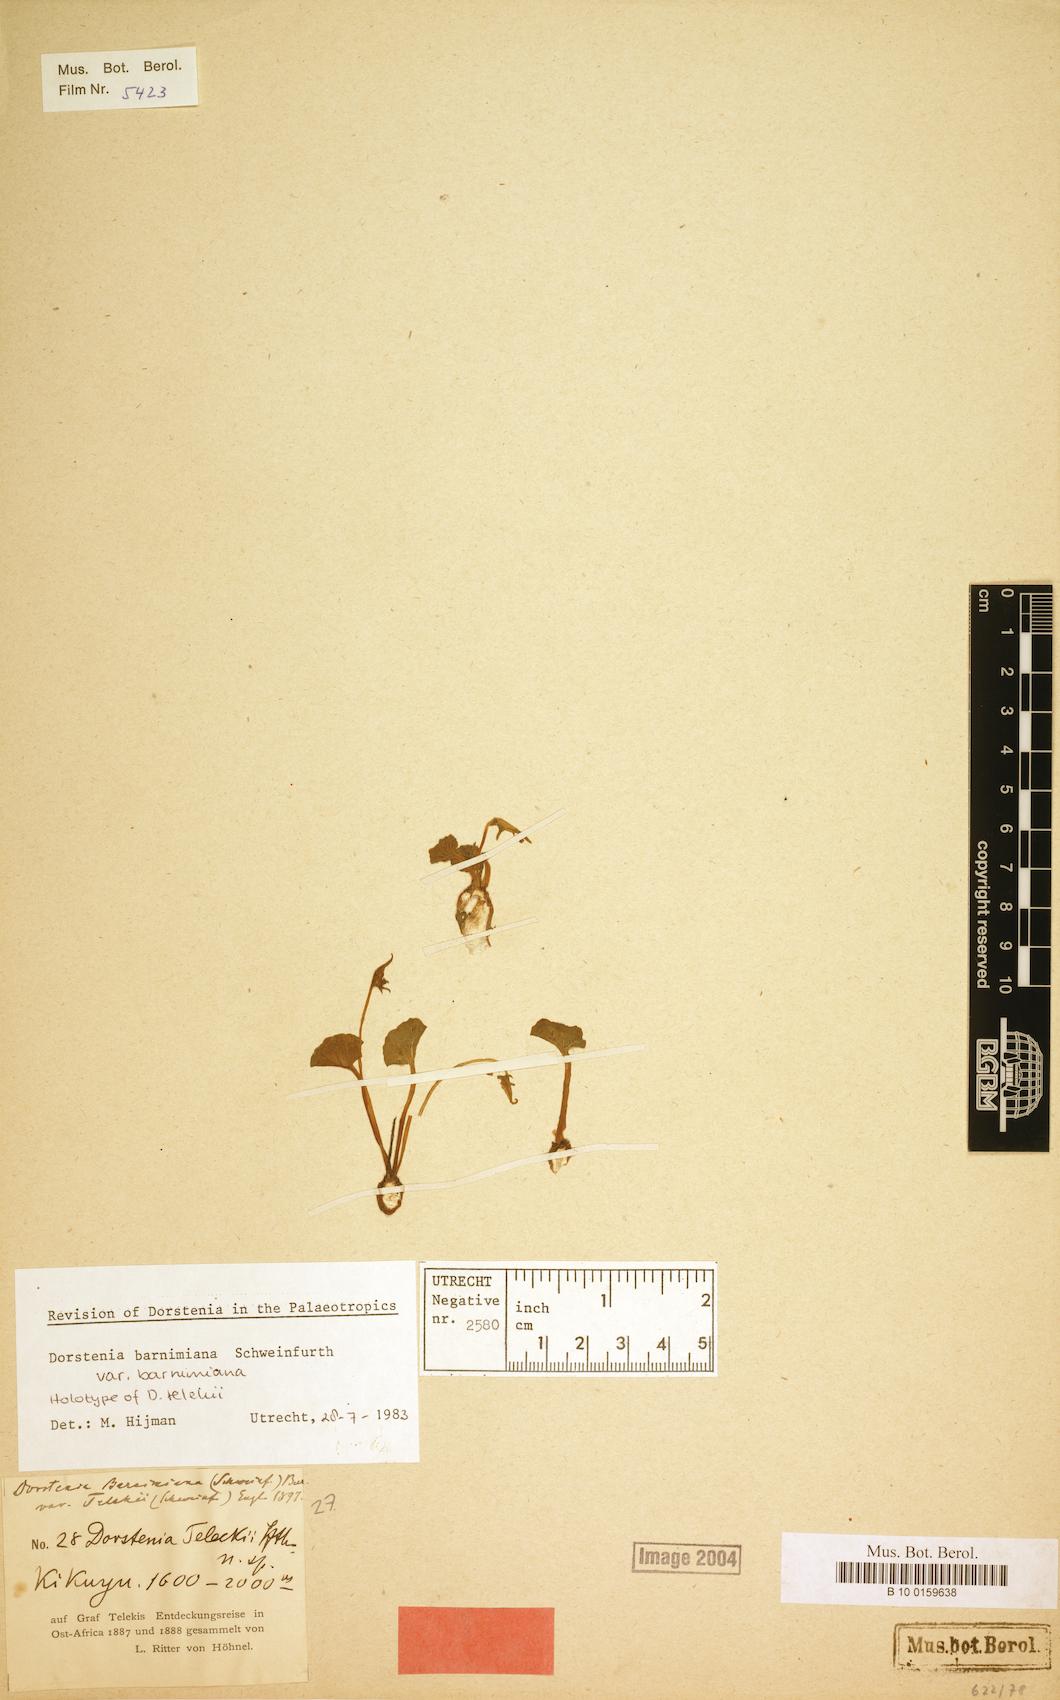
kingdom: Plantae
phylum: Tracheophyta
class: Magnoliopsida
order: Rosales
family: Moraceae
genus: Dorstenia
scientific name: Dorstenia barnimiana
